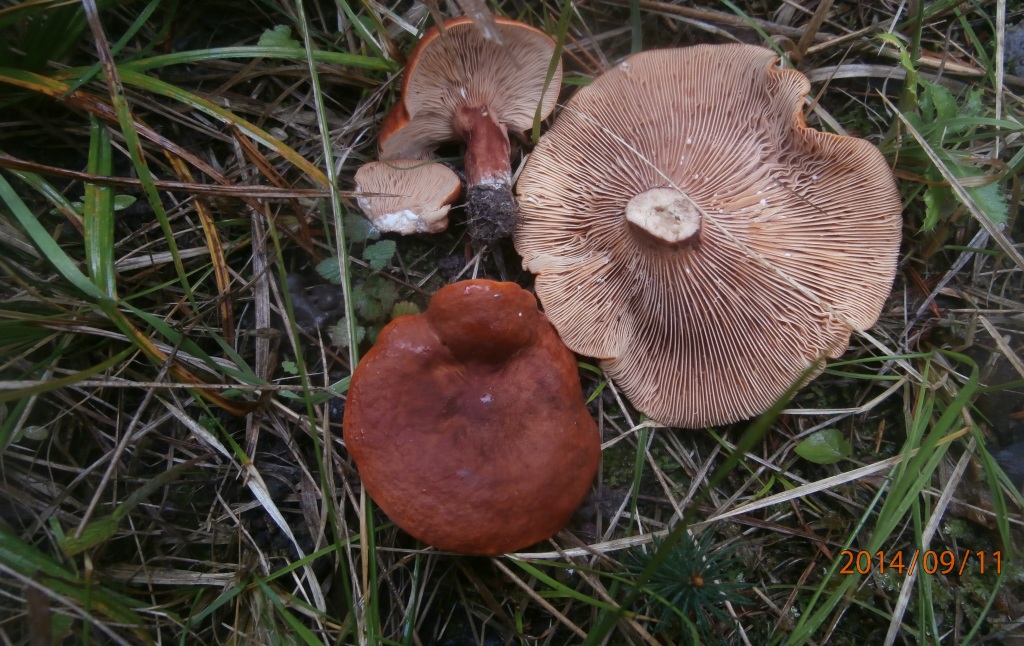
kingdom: Fungi
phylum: Basidiomycota
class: Agaricomycetes
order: Russulales
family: Russulaceae
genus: Lactarius
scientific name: Lactarius fulvissimus
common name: ræve-mælkehat
